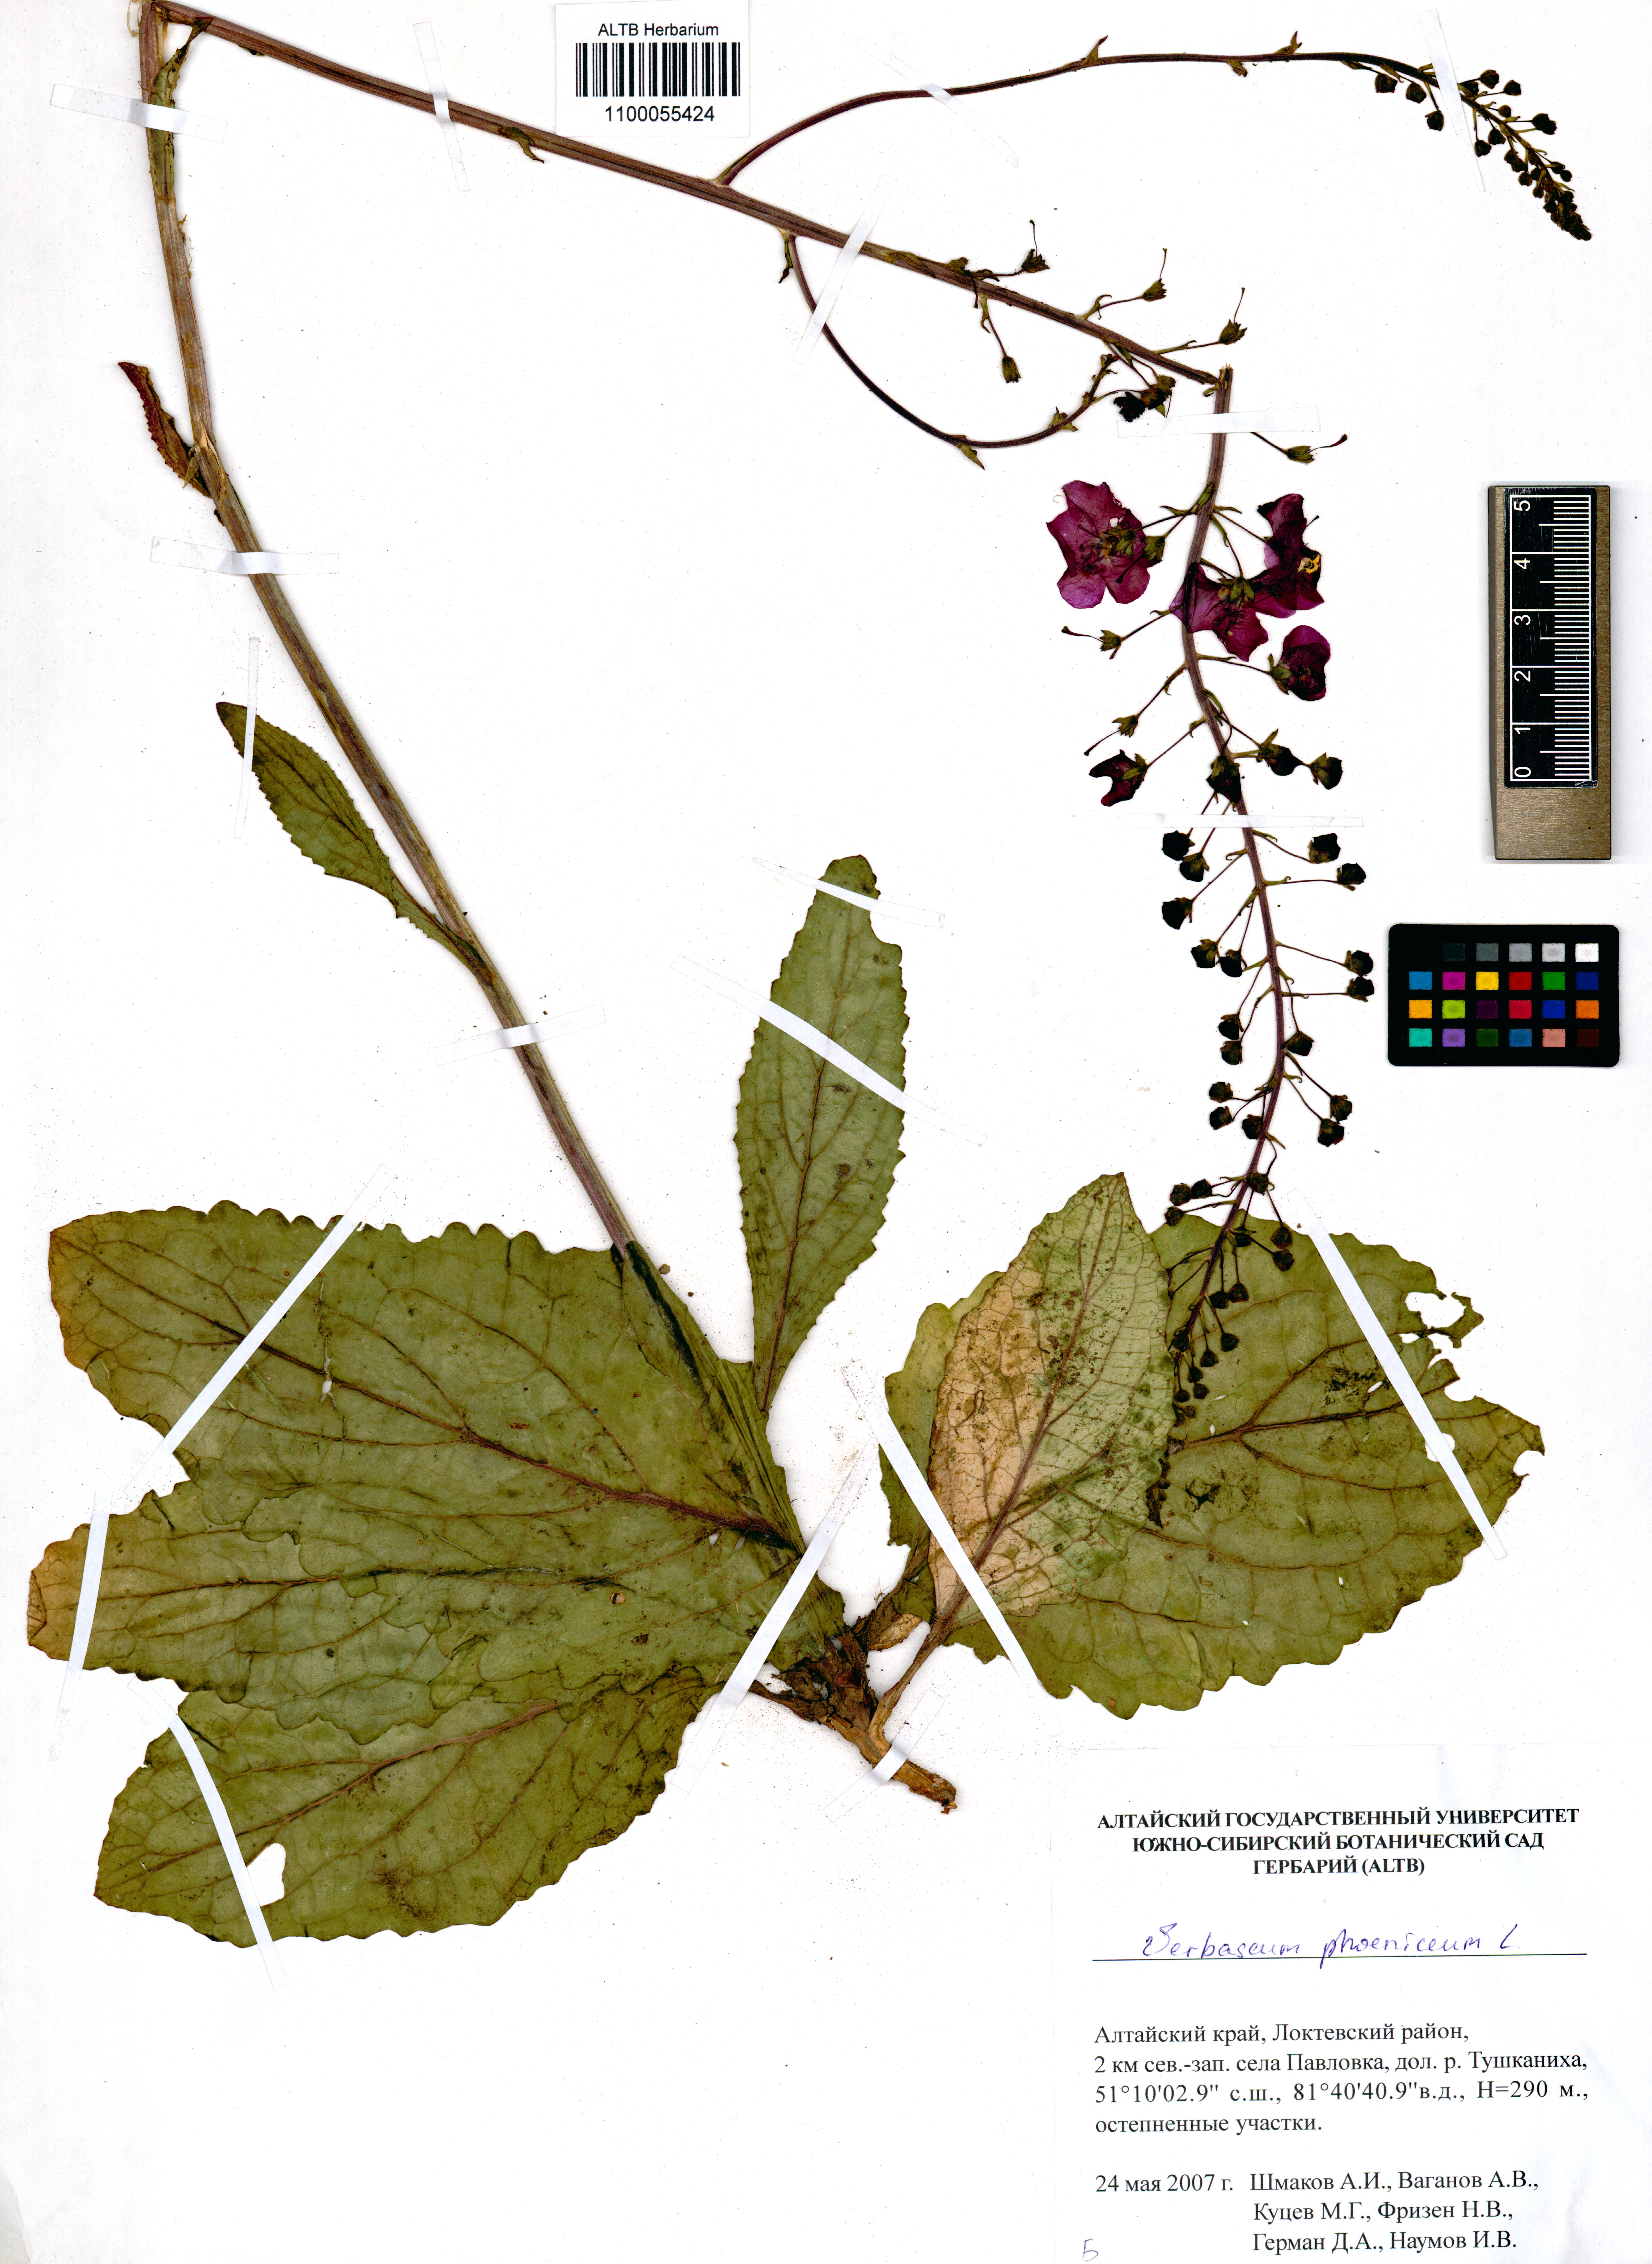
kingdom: Plantae
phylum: Tracheophyta
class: Magnoliopsida
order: Lamiales
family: Scrophulariaceae
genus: Verbascum
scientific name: Verbascum phoeniceum
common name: Purple mullein
